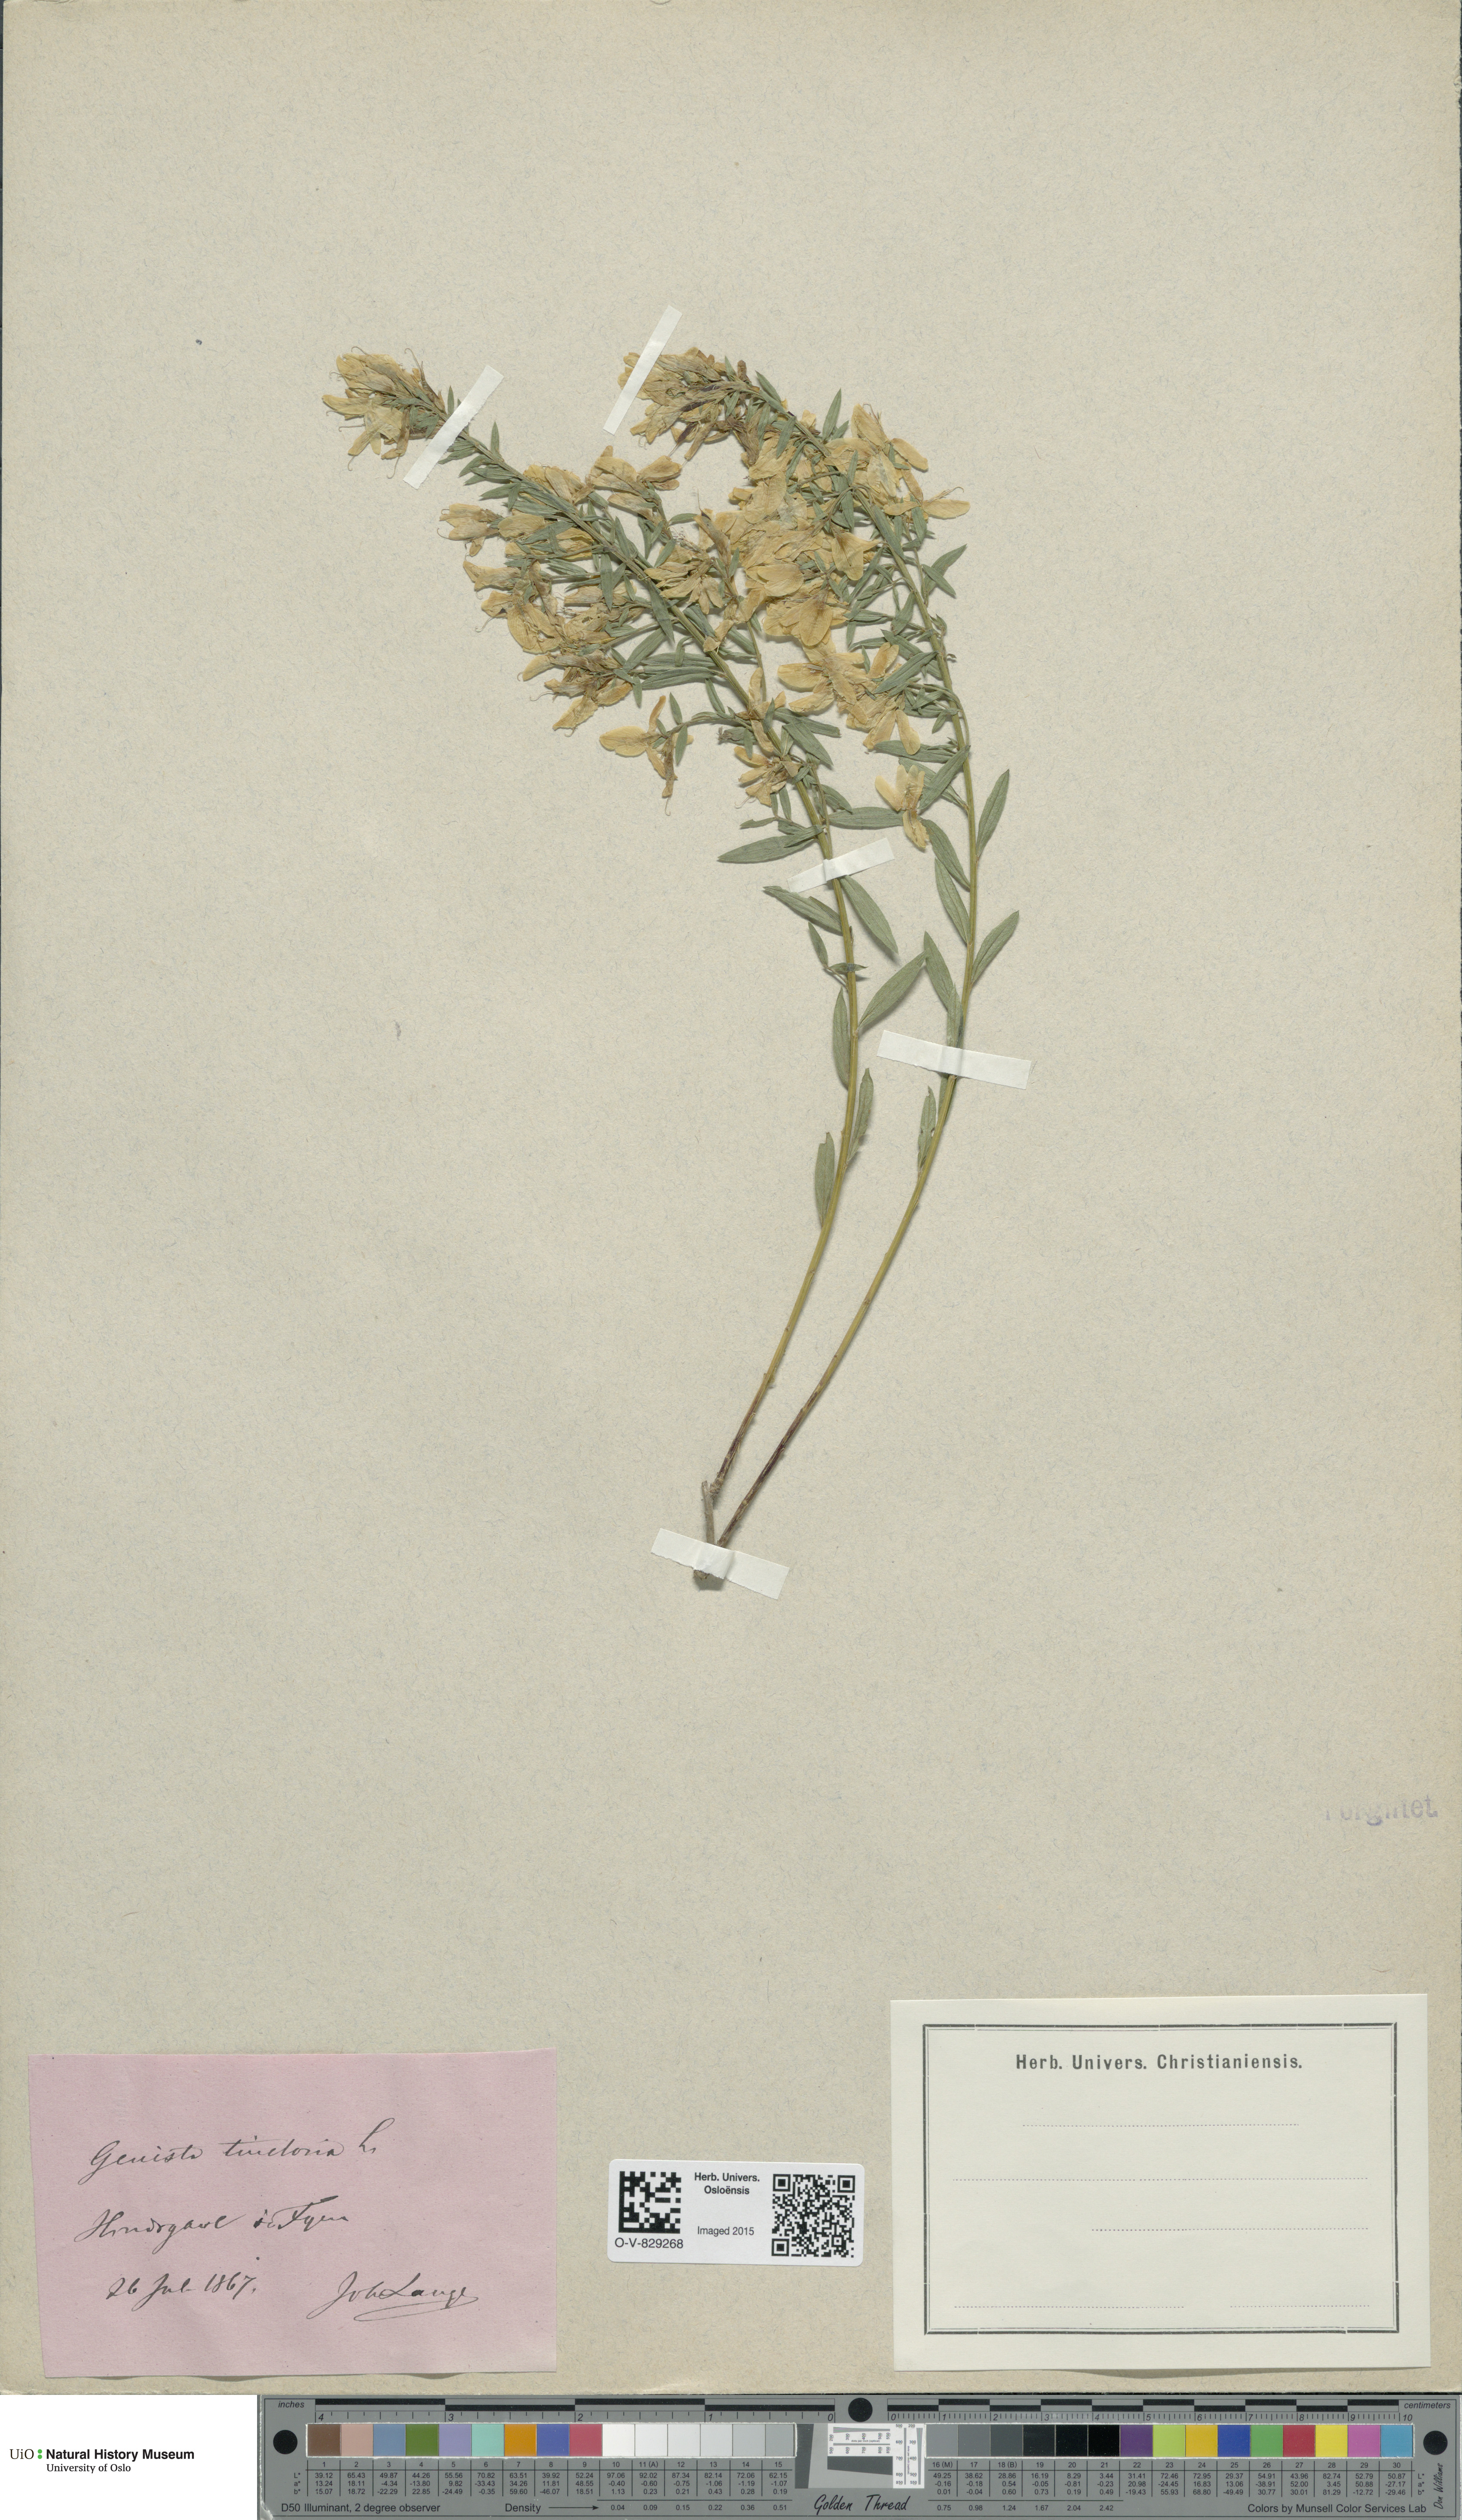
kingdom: Plantae
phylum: Tracheophyta
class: Magnoliopsida
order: Fabales
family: Fabaceae
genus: Genista
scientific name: Genista tinctoria
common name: Dyer's greenweed
